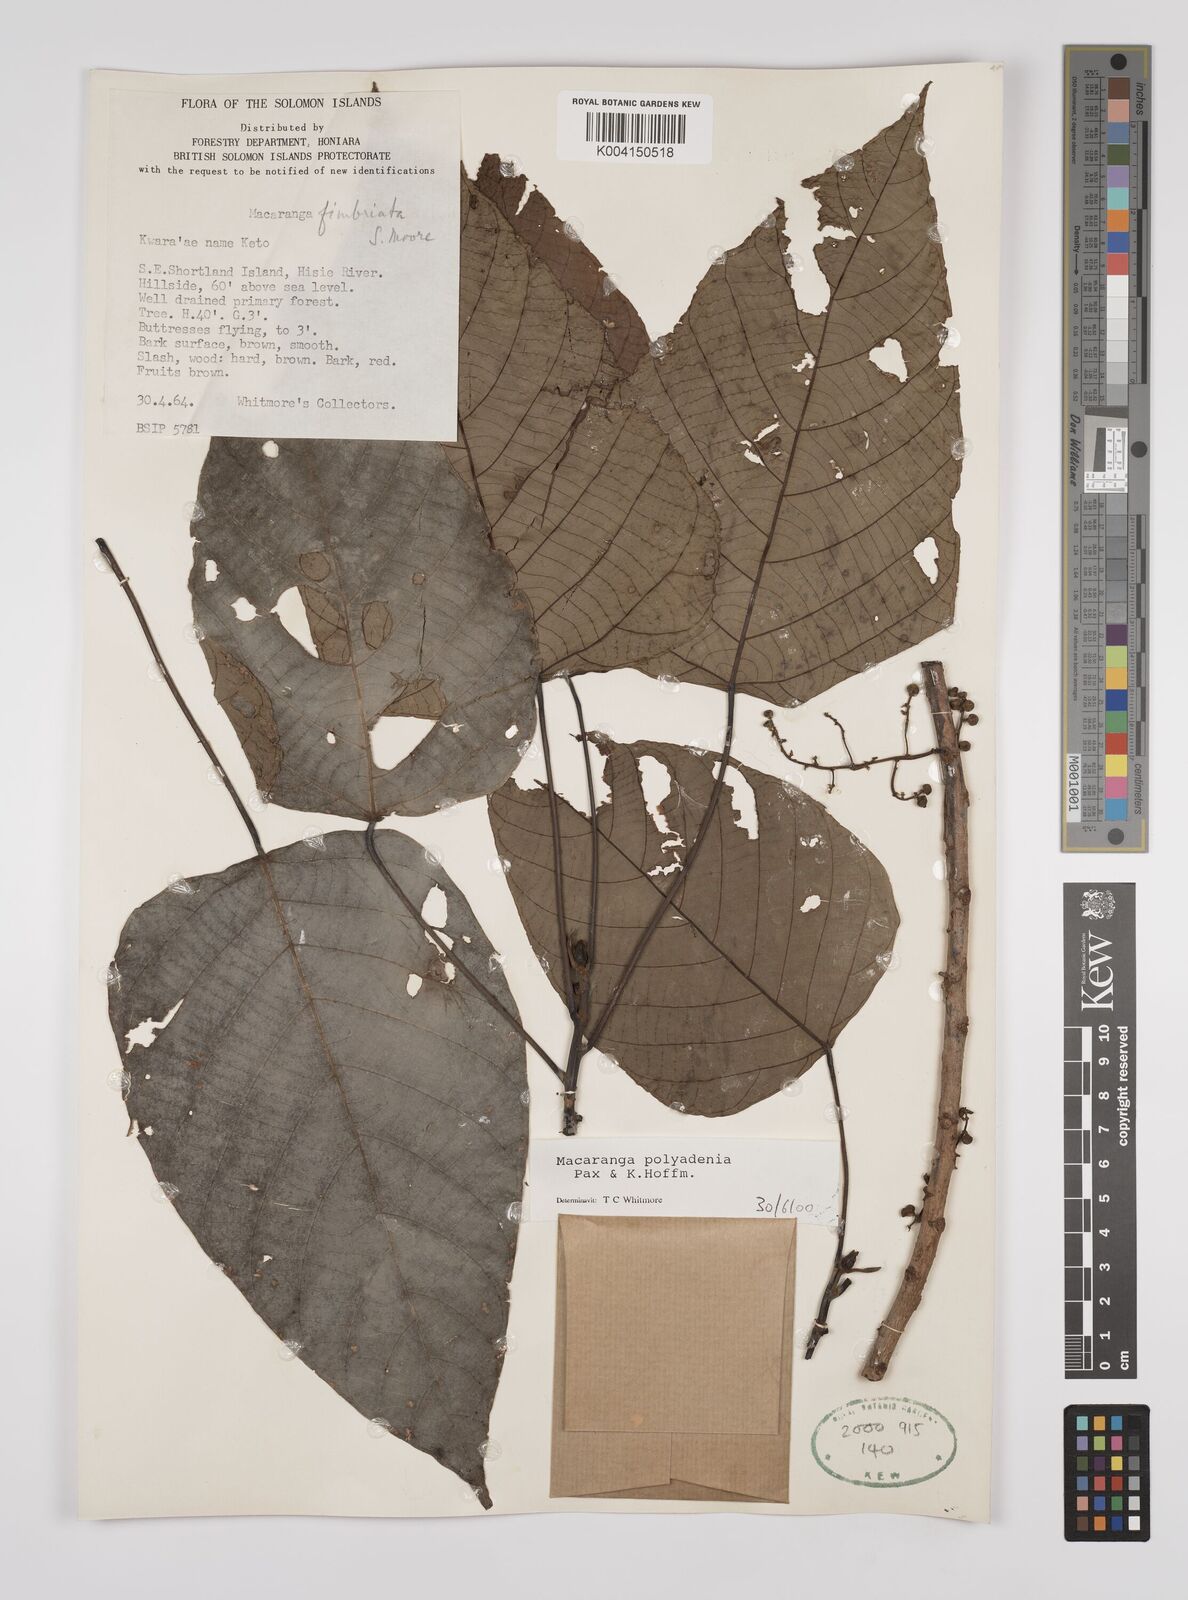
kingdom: Plantae
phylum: Tracheophyta
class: Magnoliopsida
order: Malpighiales
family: Euphorbiaceae
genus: Macaranga
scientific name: Macaranga polyadenia
